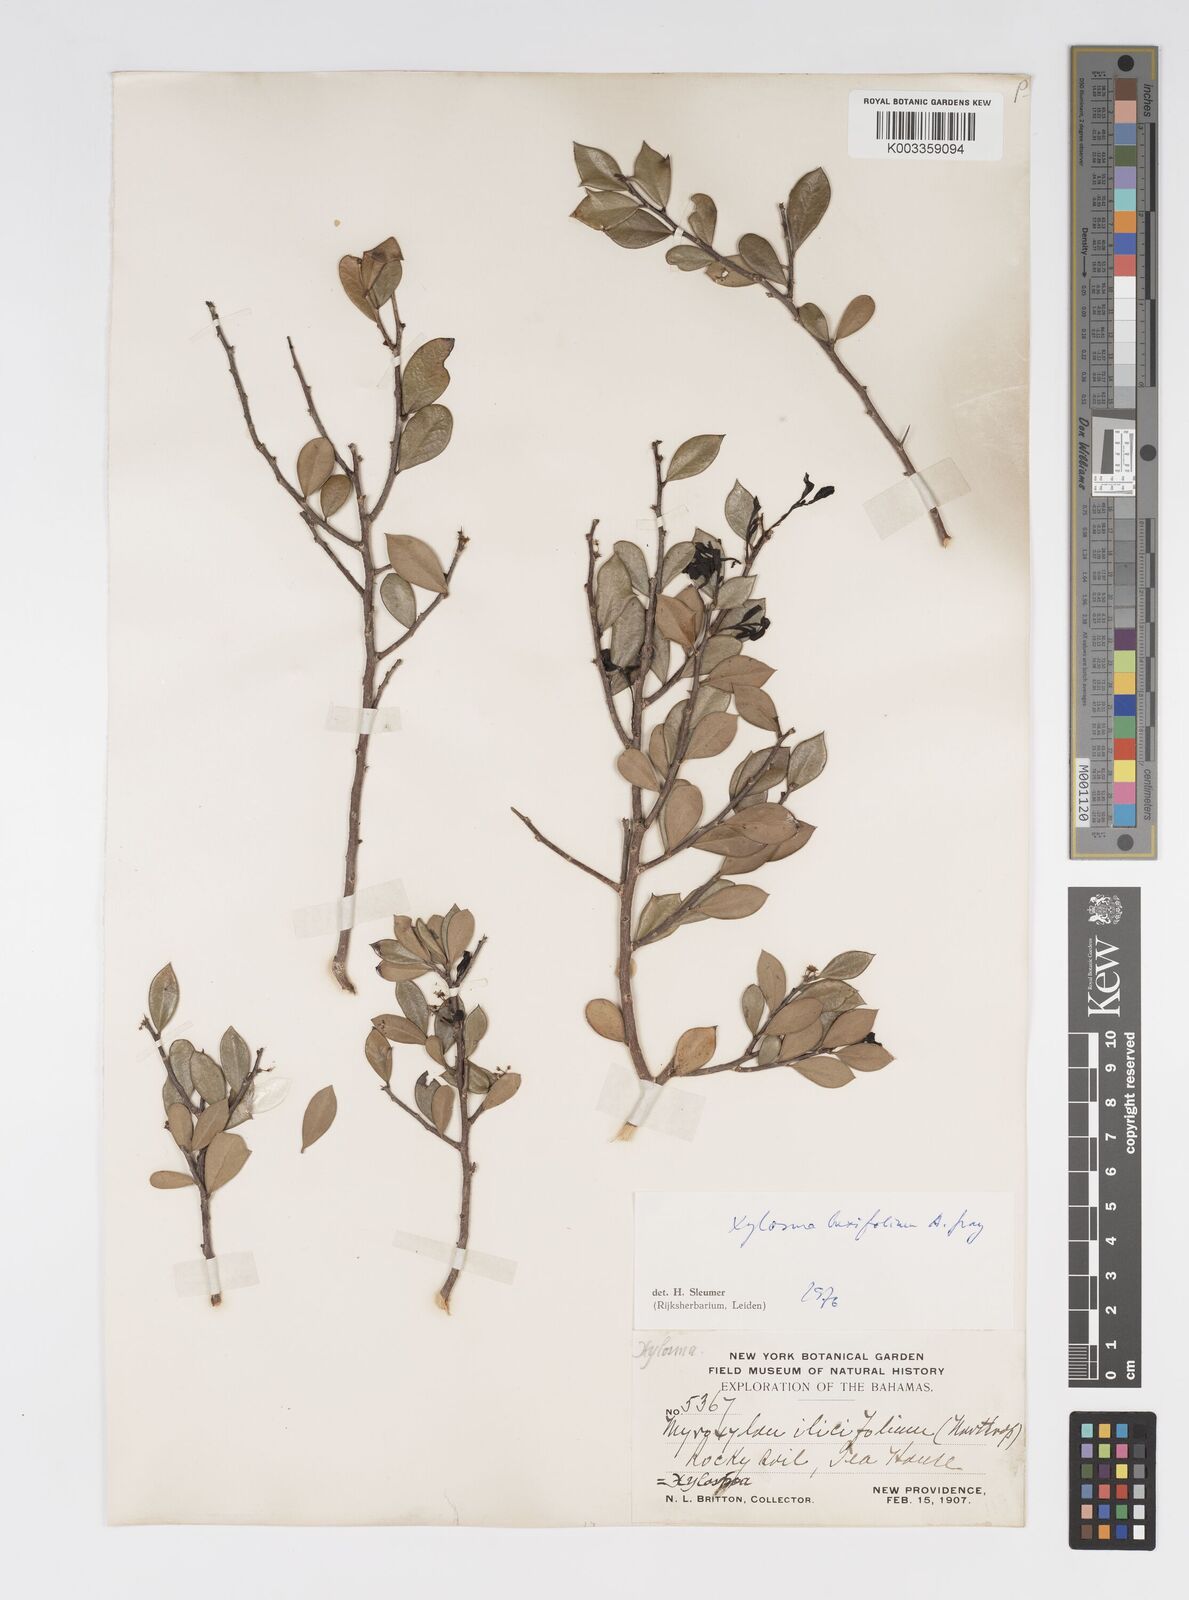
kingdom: Plantae
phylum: Tracheophyta
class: Magnoliopsida
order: Malpighiales
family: Salicaceae
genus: Xylosma
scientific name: Xylosma buxifolia
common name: Cockspur
